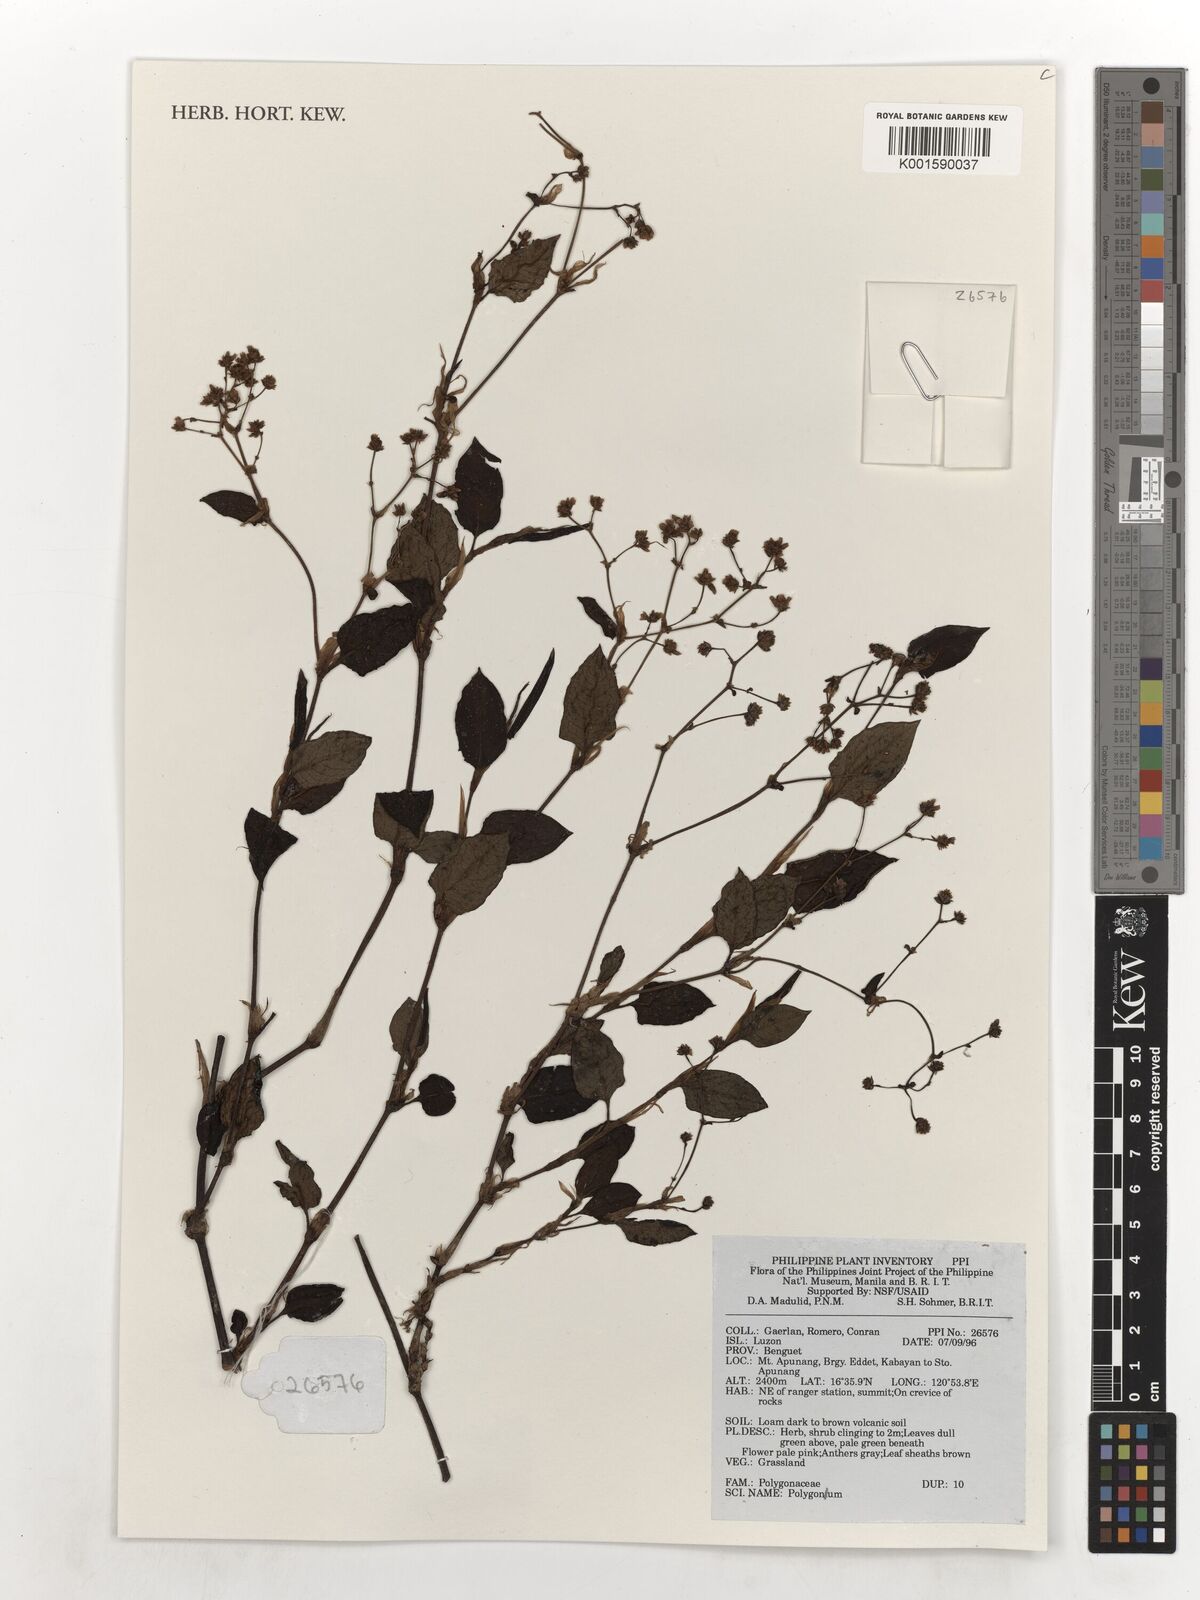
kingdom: Plantae
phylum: Tracheophyta
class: Magnoliopsida
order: Caryophyllales
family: Polygonaceae
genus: Polygonum
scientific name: Polygonum
